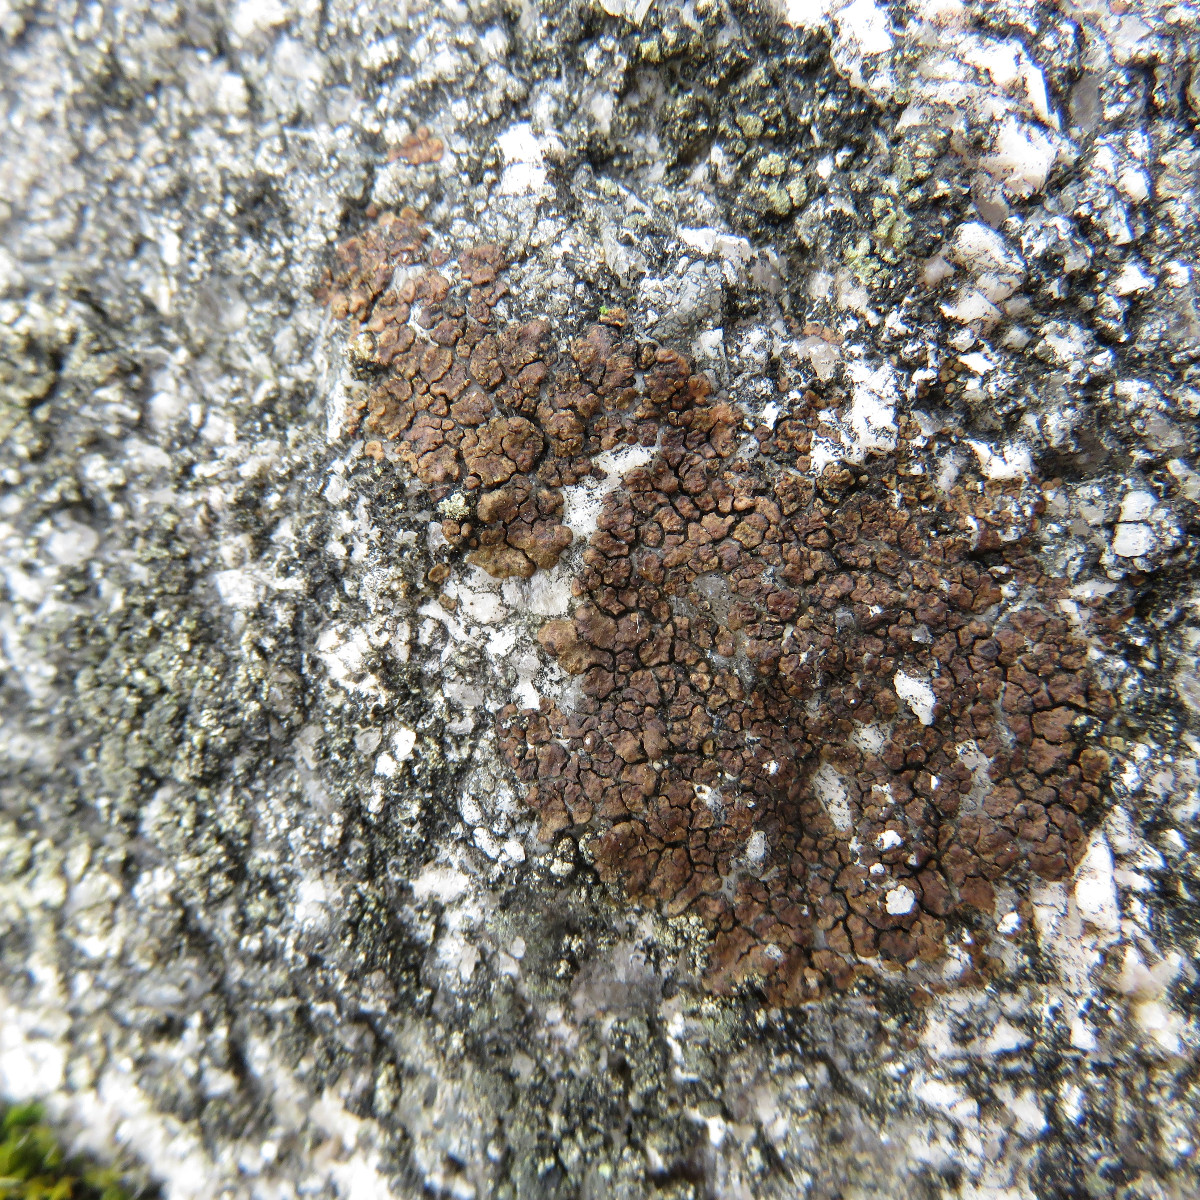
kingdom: Fungi
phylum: Ascomycota
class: Lecanoromycetes
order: Acarosporales
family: Acarosporaceae
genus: Acarospora
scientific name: Acarospora fuscata
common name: brun småsporelav
